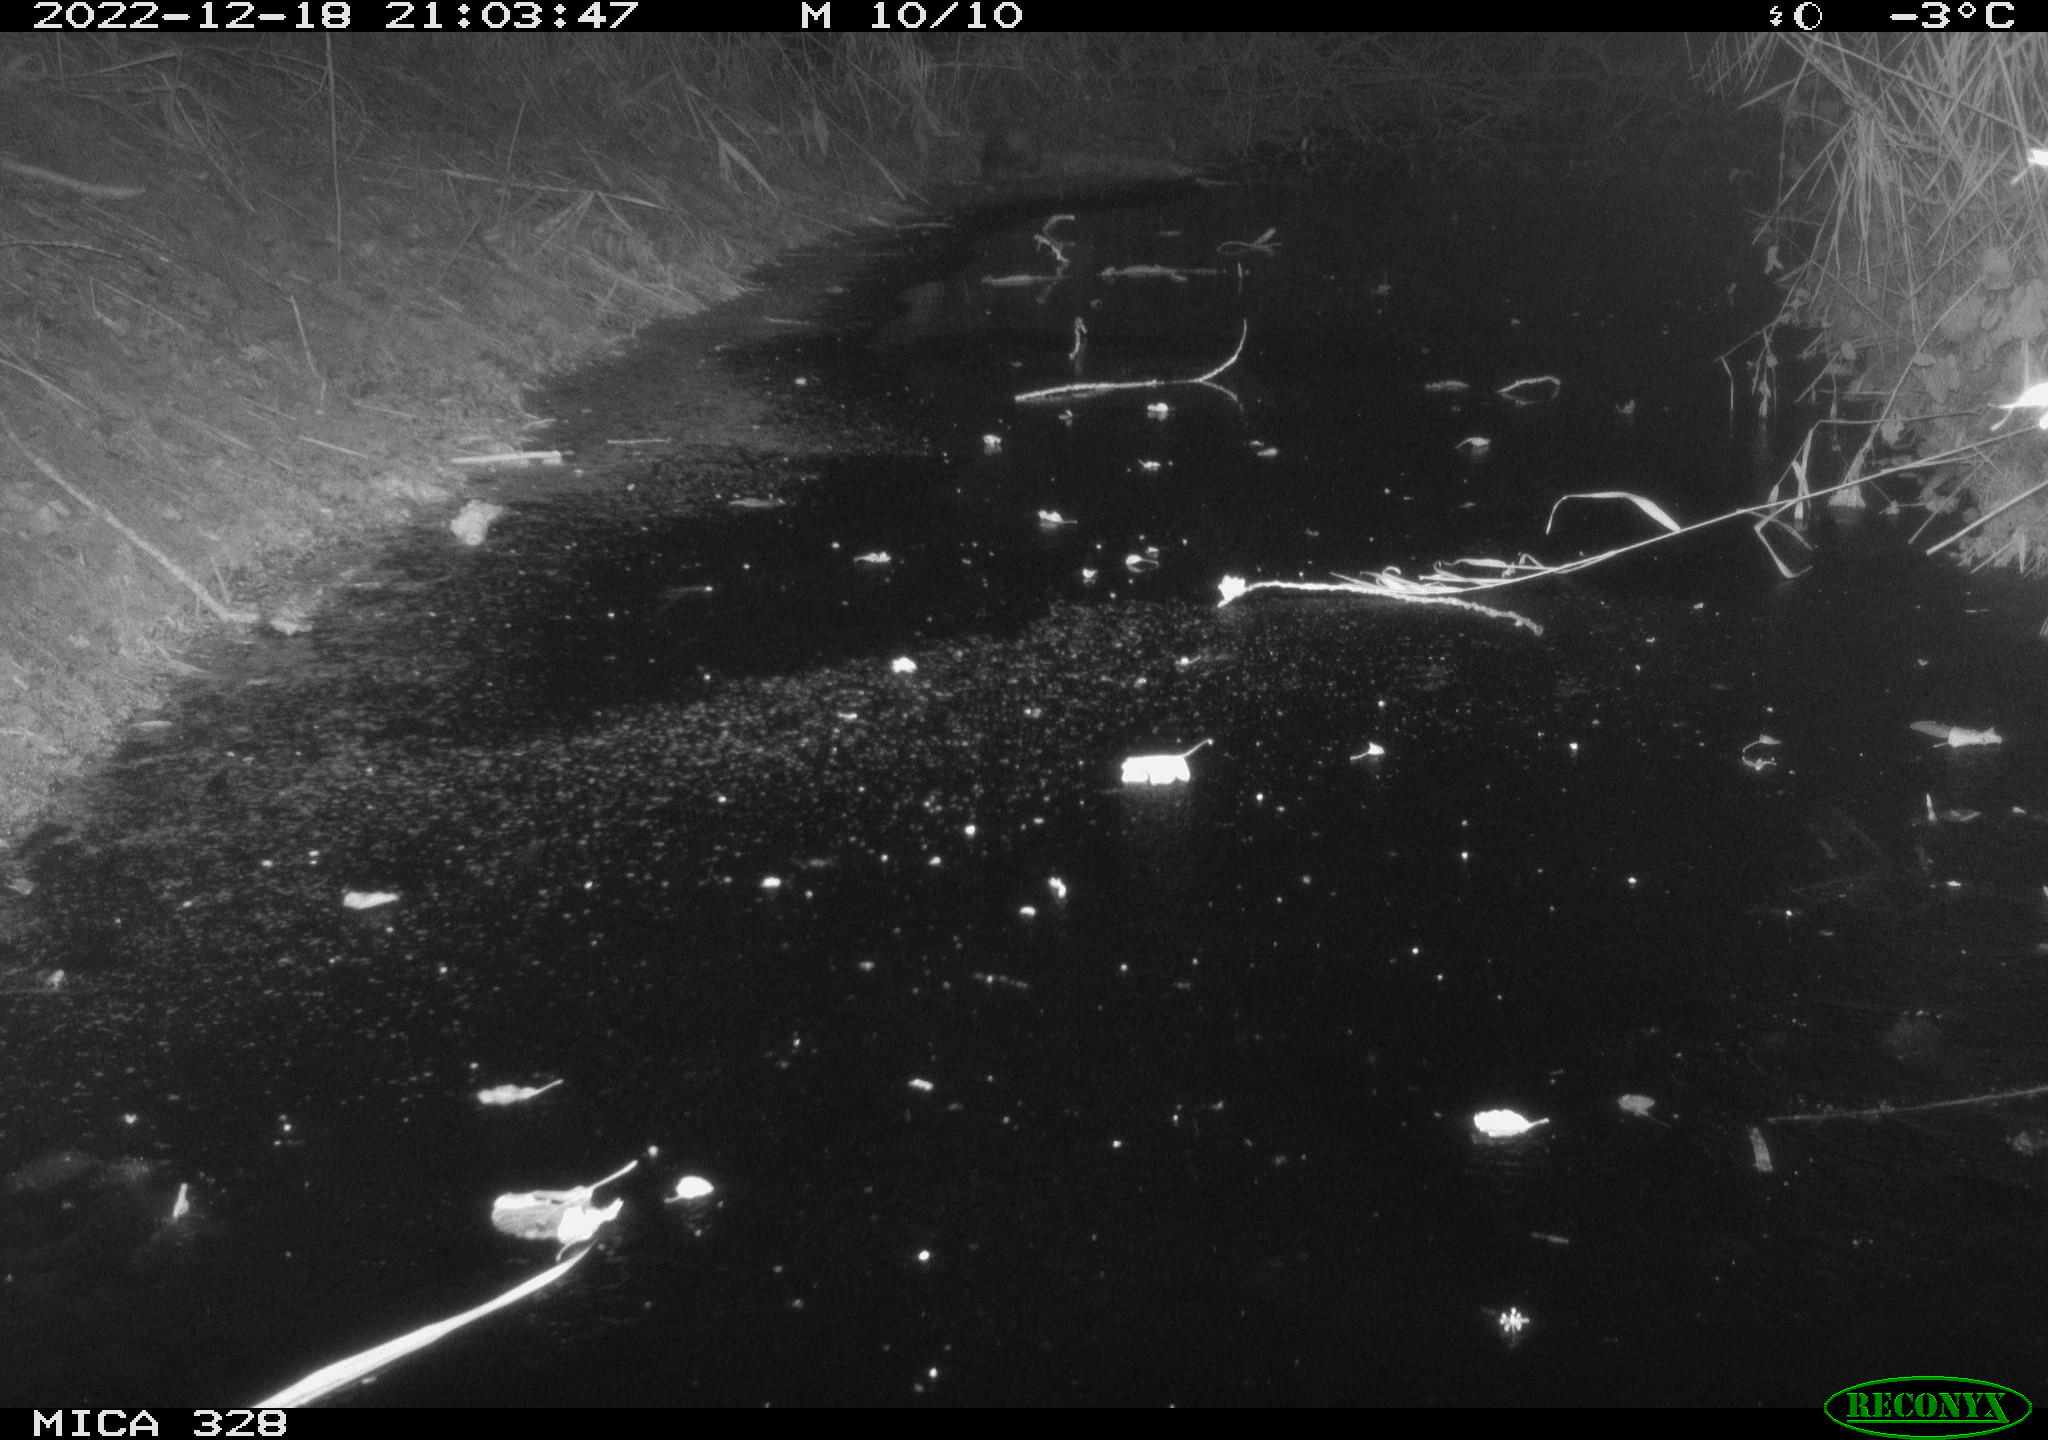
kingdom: Animalia
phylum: Chordata
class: Mammalia
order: Carnivora
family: Mustelidae
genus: Martes
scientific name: Martes
